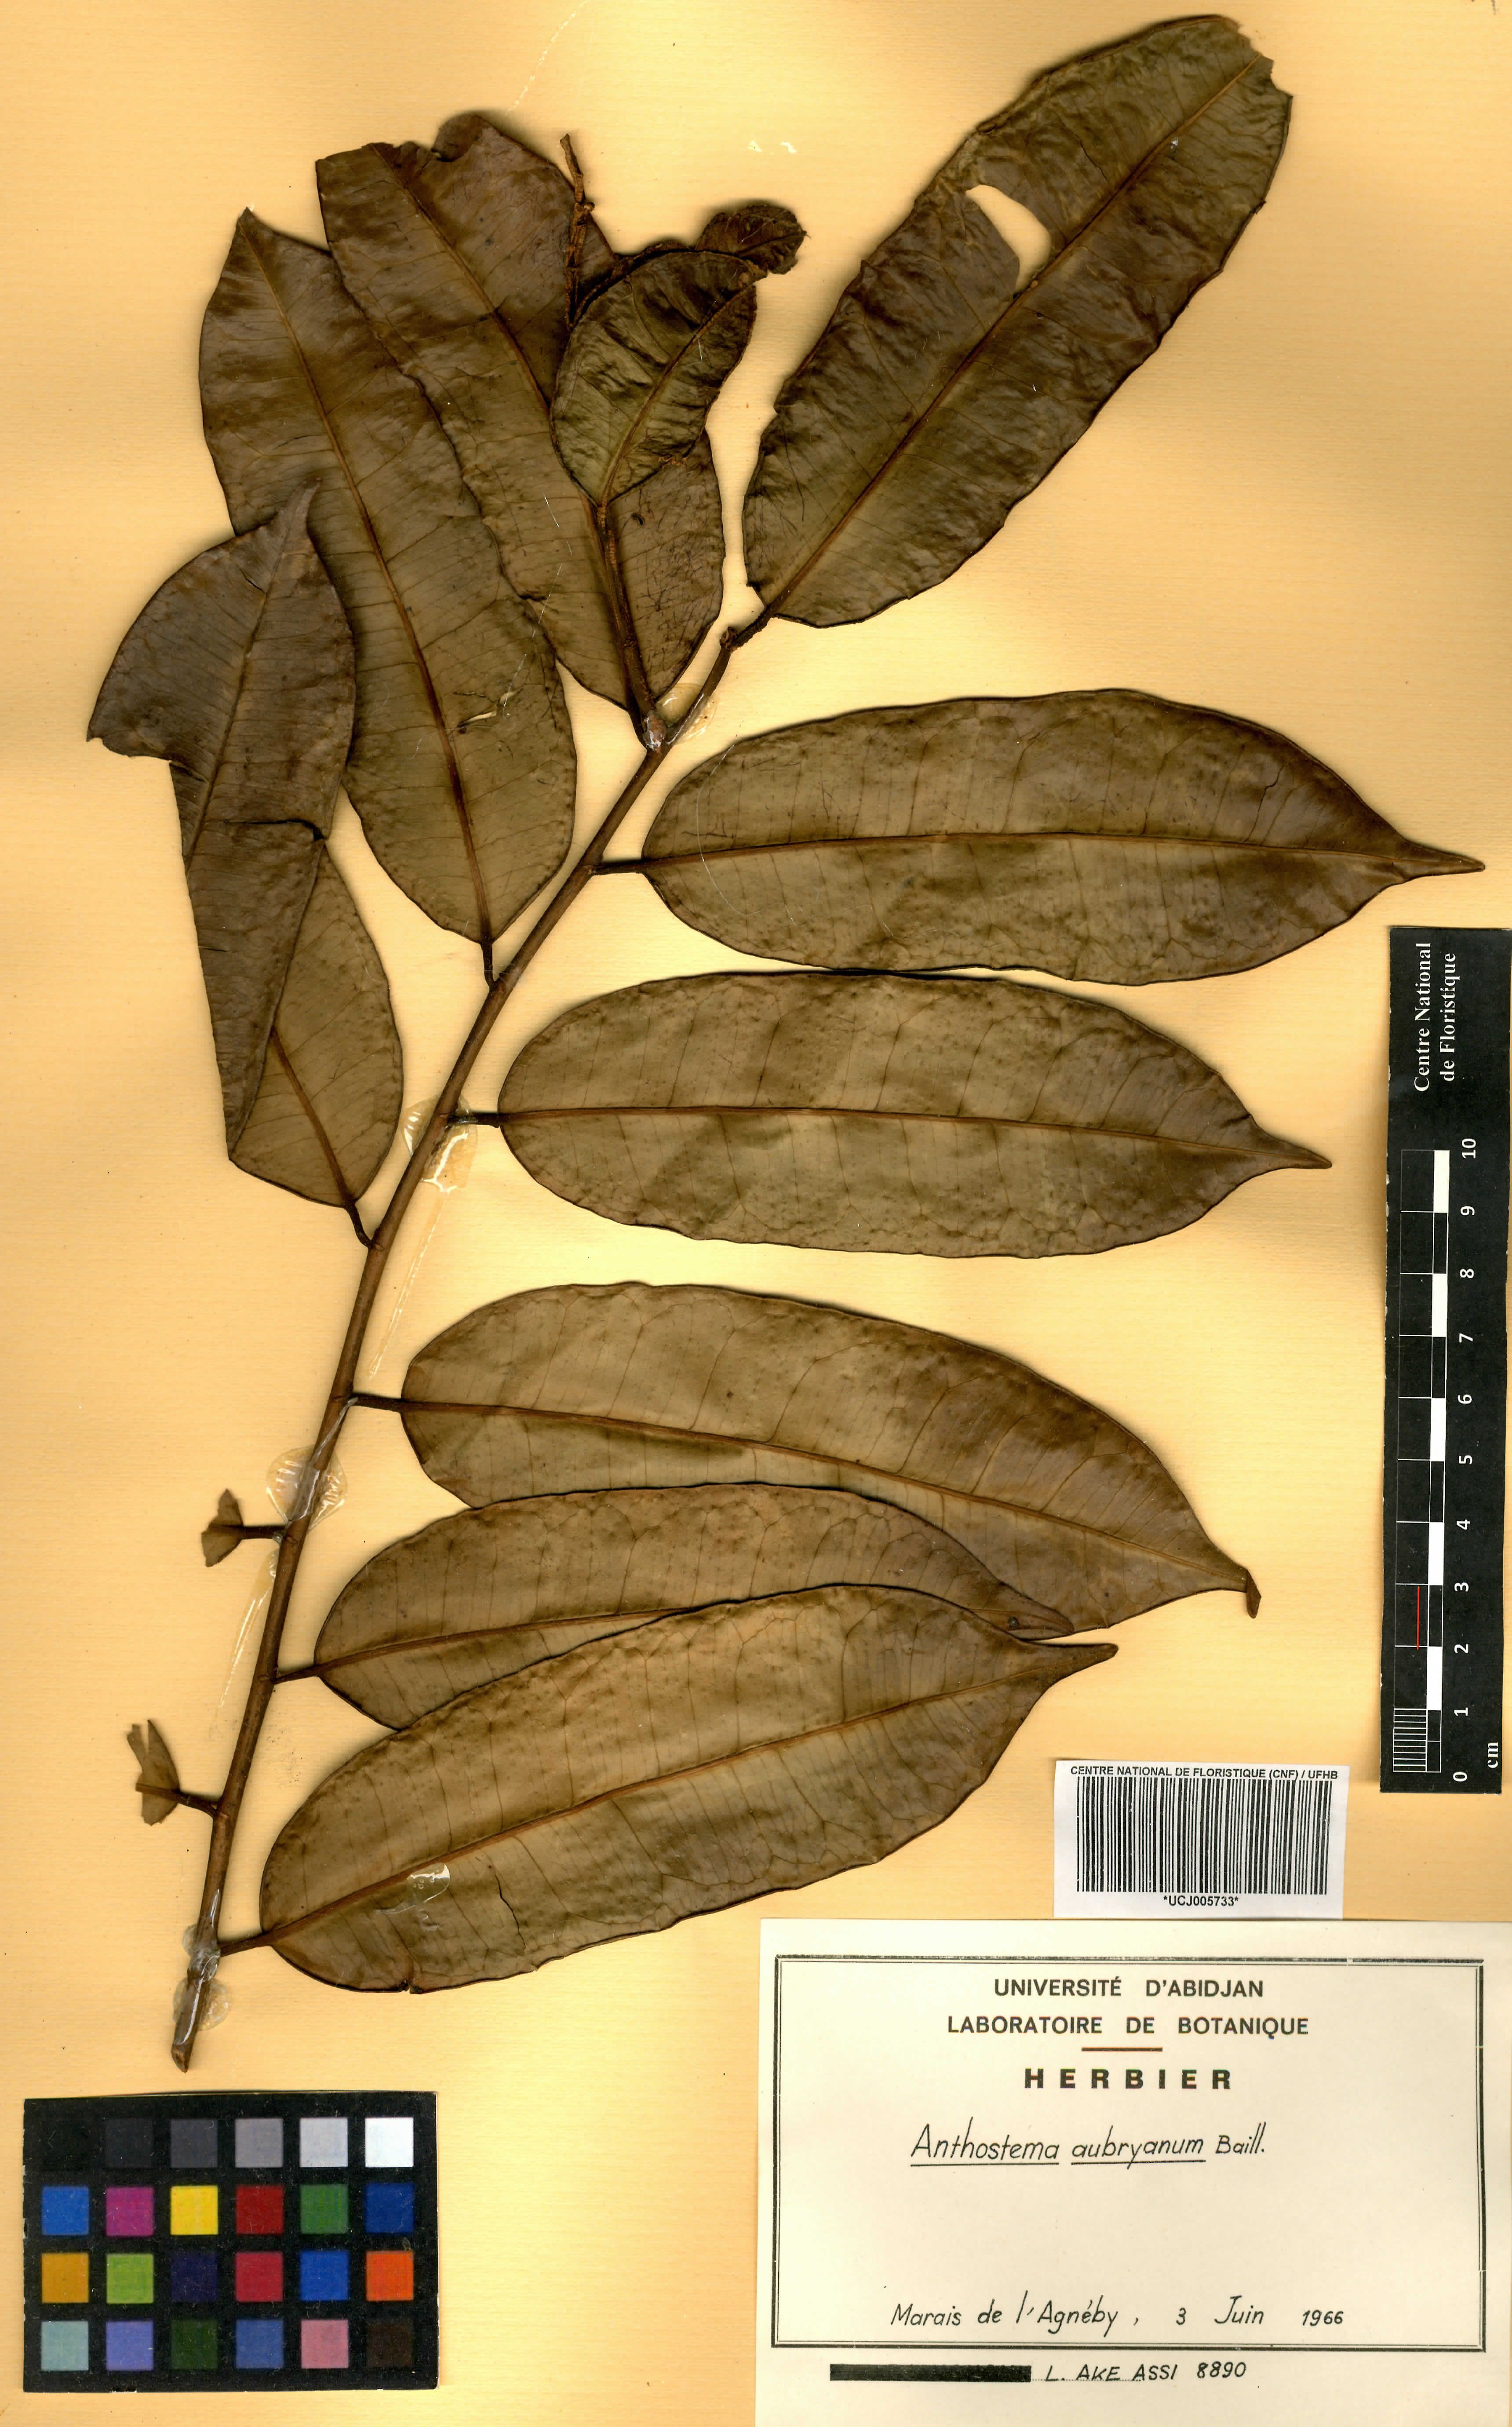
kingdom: Plantae
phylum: Tracheophyta
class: Magnoliopsida
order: Malpighiales
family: Euphorbiaceae
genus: Anthostema
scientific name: Anthostema aubryanum
